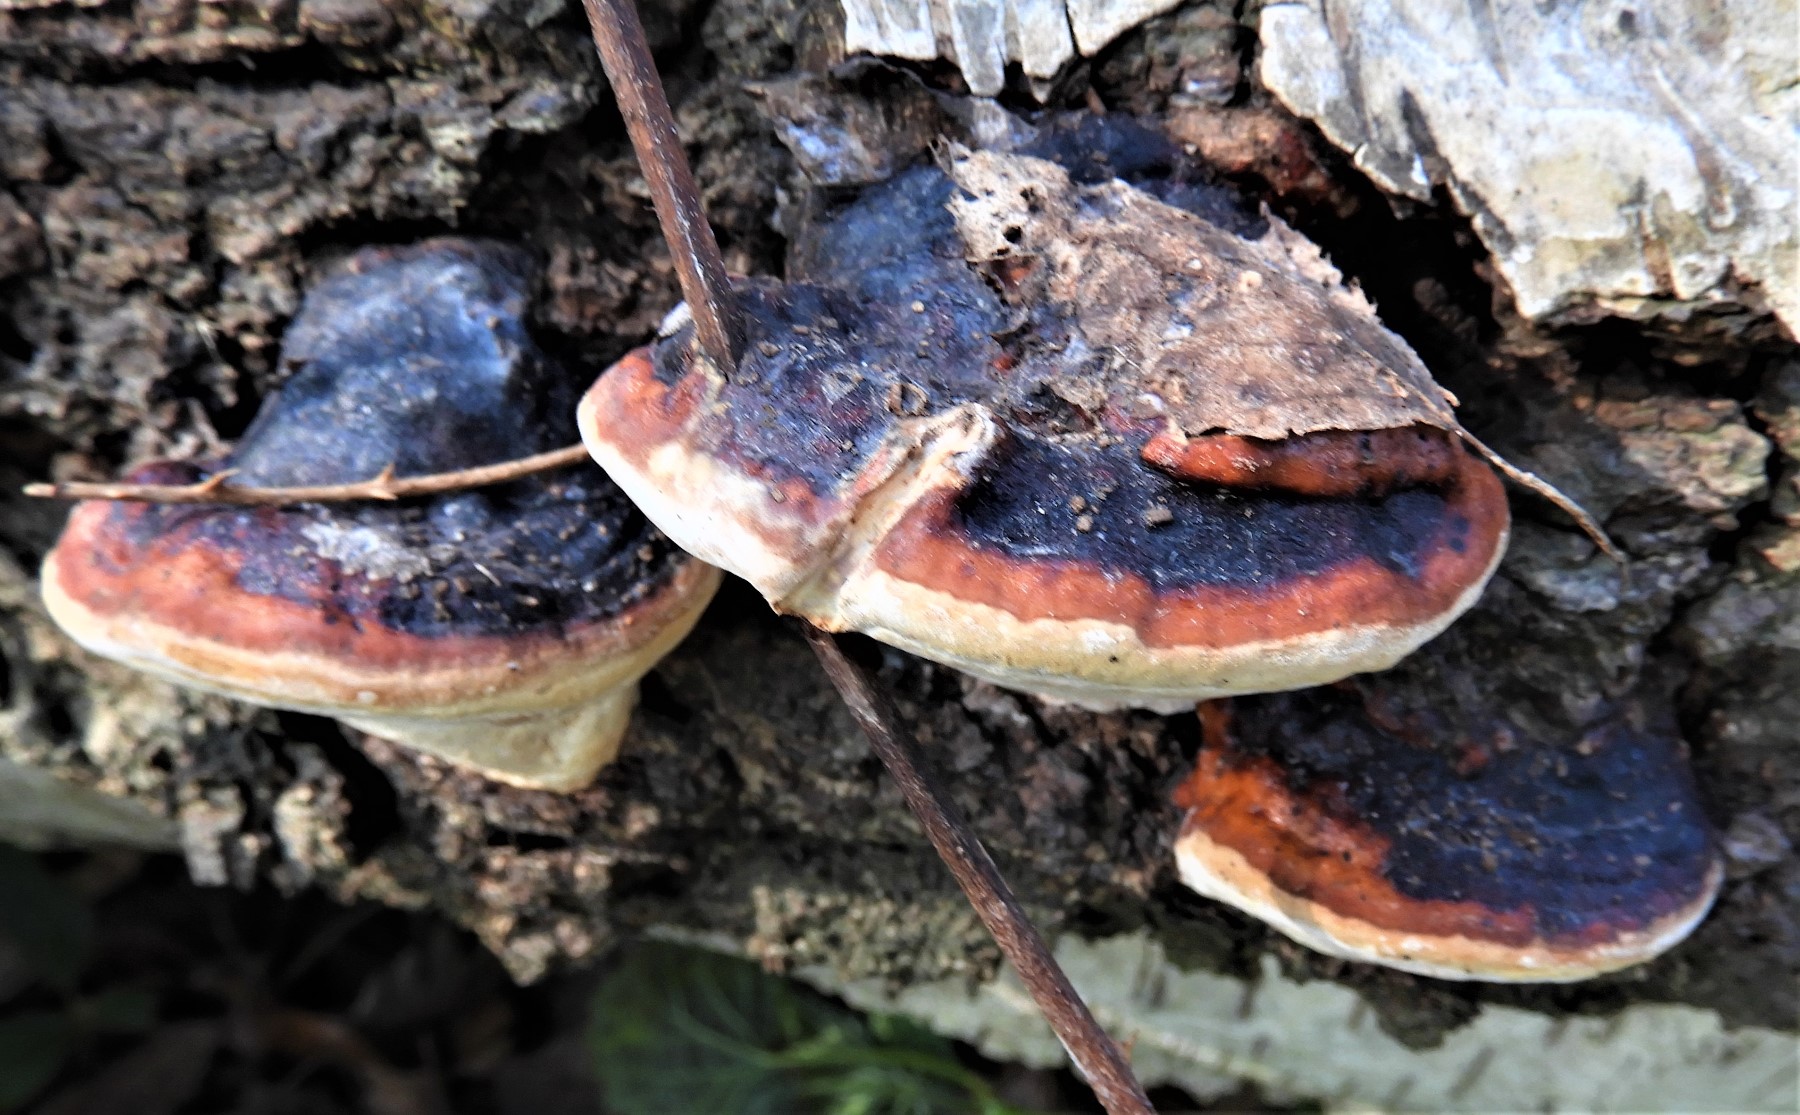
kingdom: Fungi
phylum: Basidiomycota
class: Agaricomycetes
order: Polyporales
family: Fomitopsidaceae
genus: Fomitopsis
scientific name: Fomitopsis pinicola
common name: randbæltet hovporesvamp
